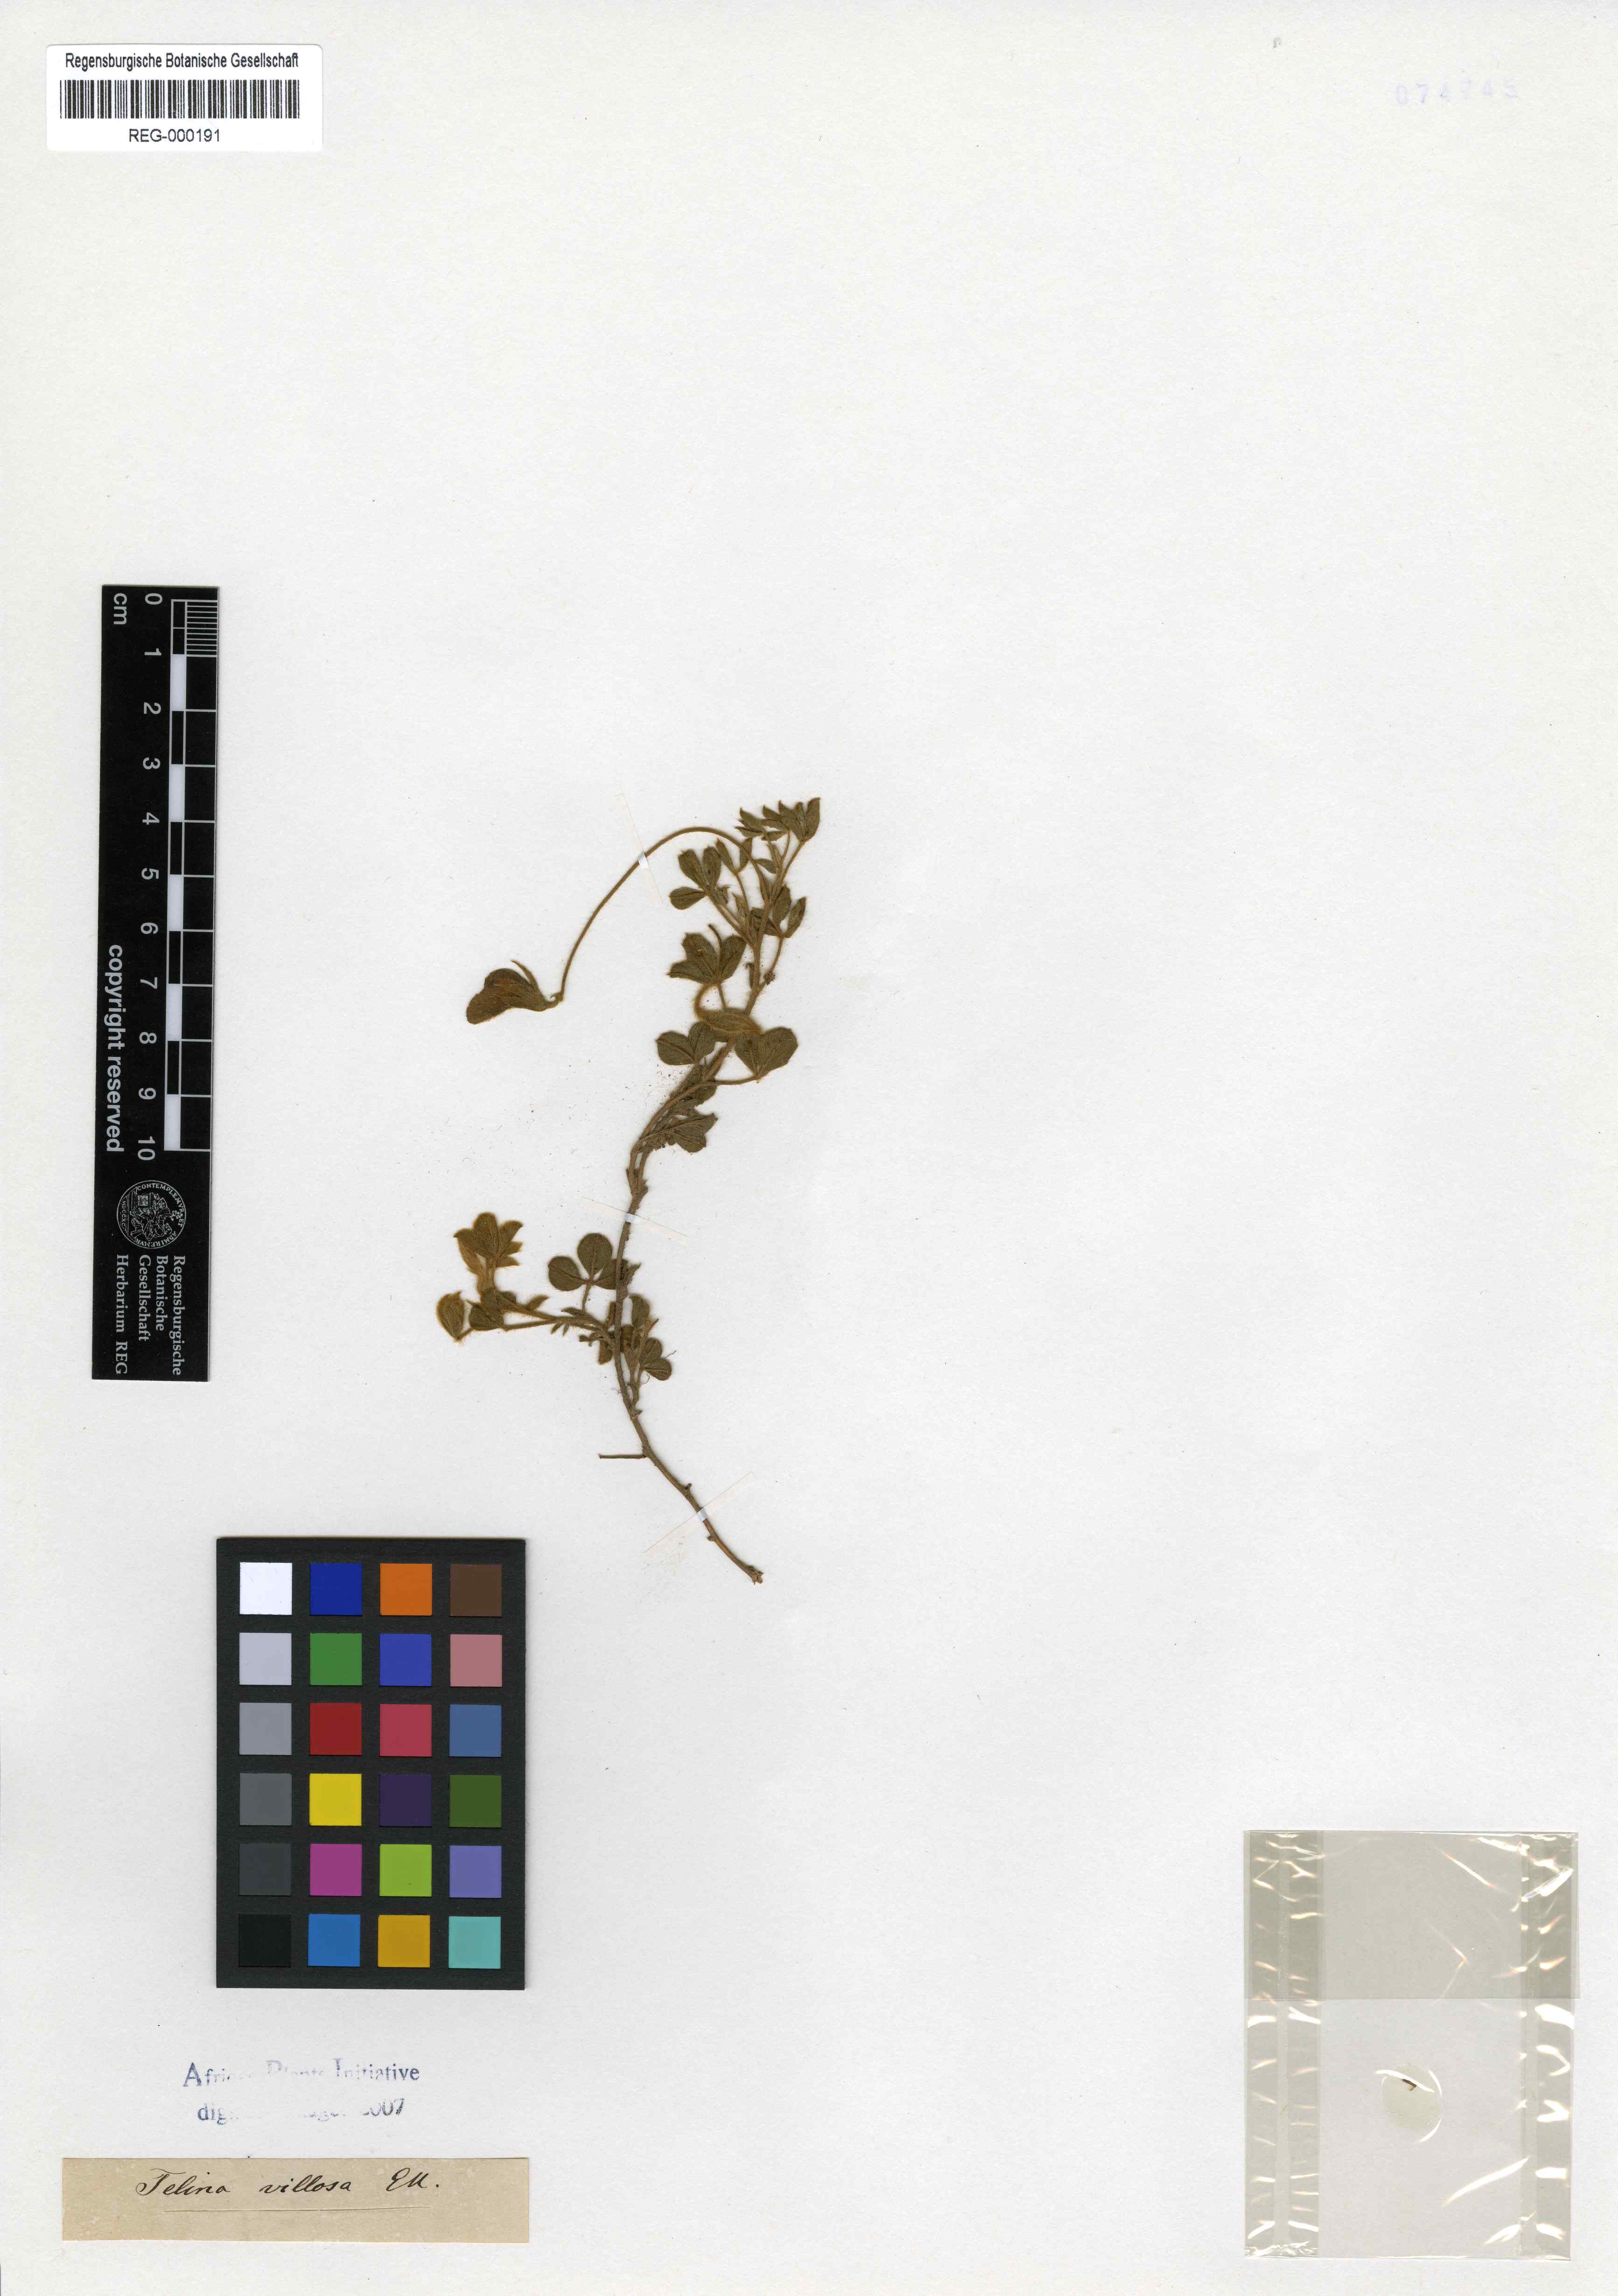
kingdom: Plantae
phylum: Tracheophyta
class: Magnoliopsida
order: Fabales
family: Fabaceae
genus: Lotononis
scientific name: Lotononis villosa
